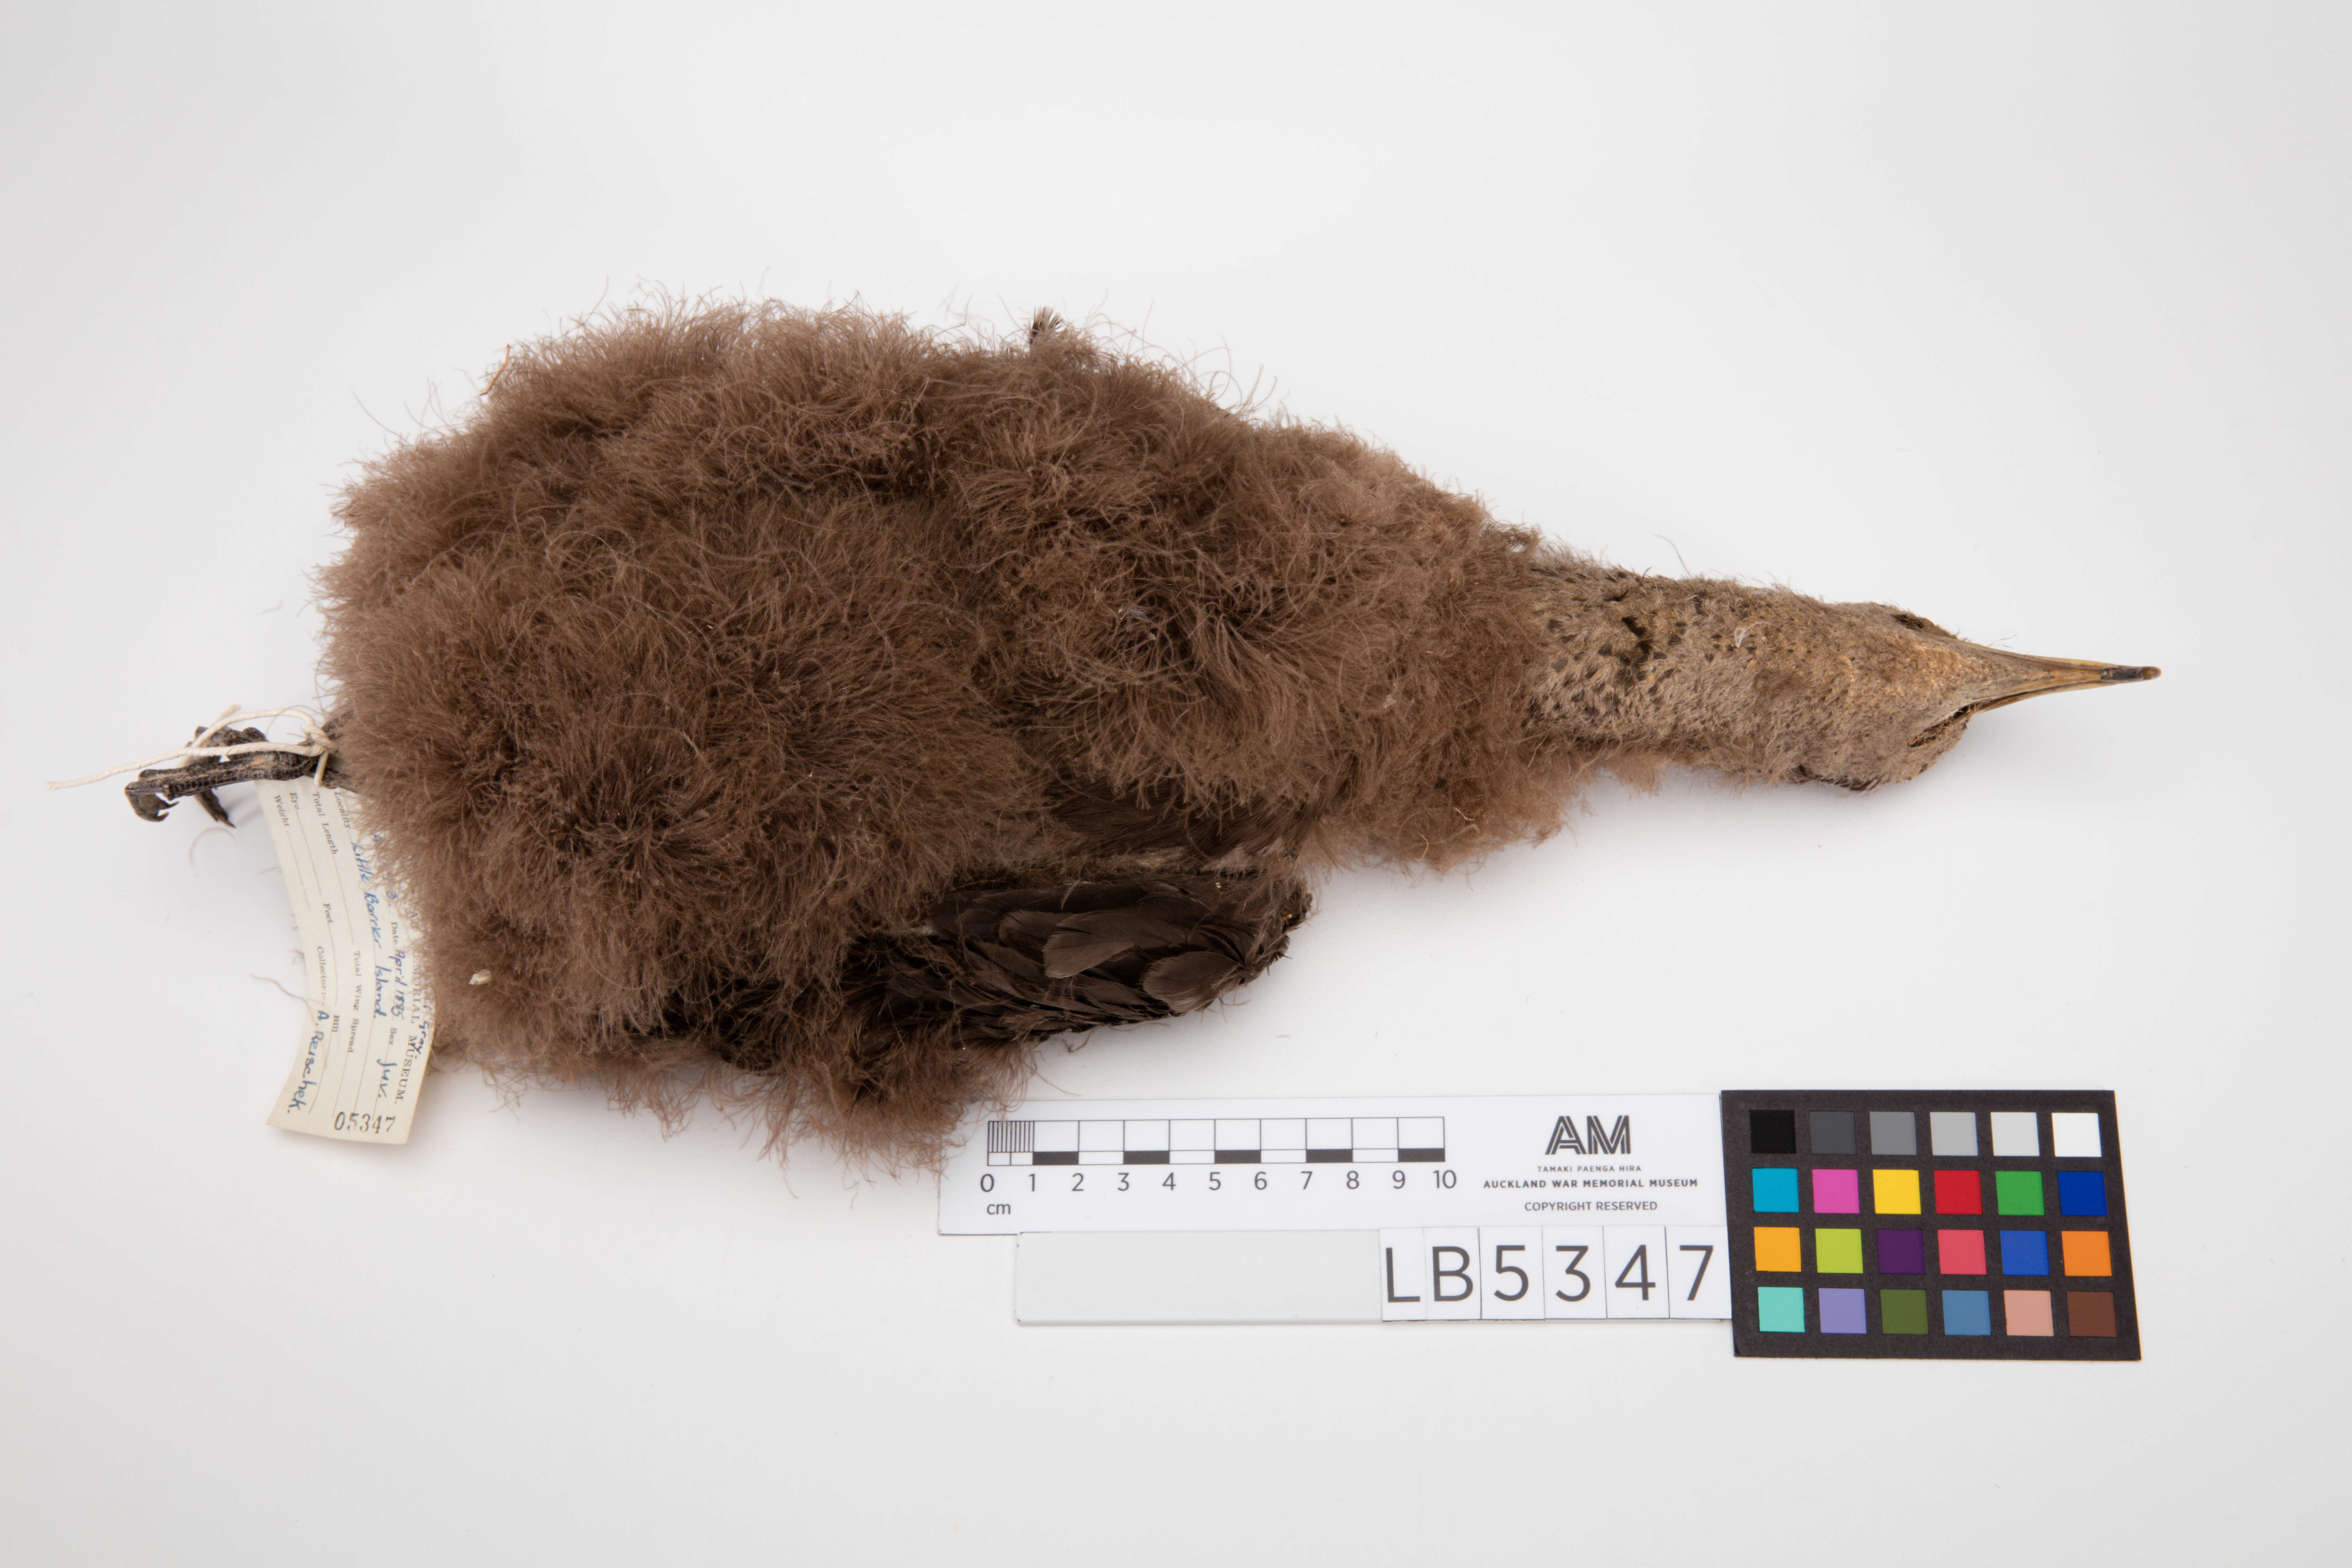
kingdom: Animalia
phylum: Chordata
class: Aves
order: Procellariiformes
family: Procellariidae
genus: Procellaria
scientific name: Procellaria parkinsoni
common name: Black petrel
